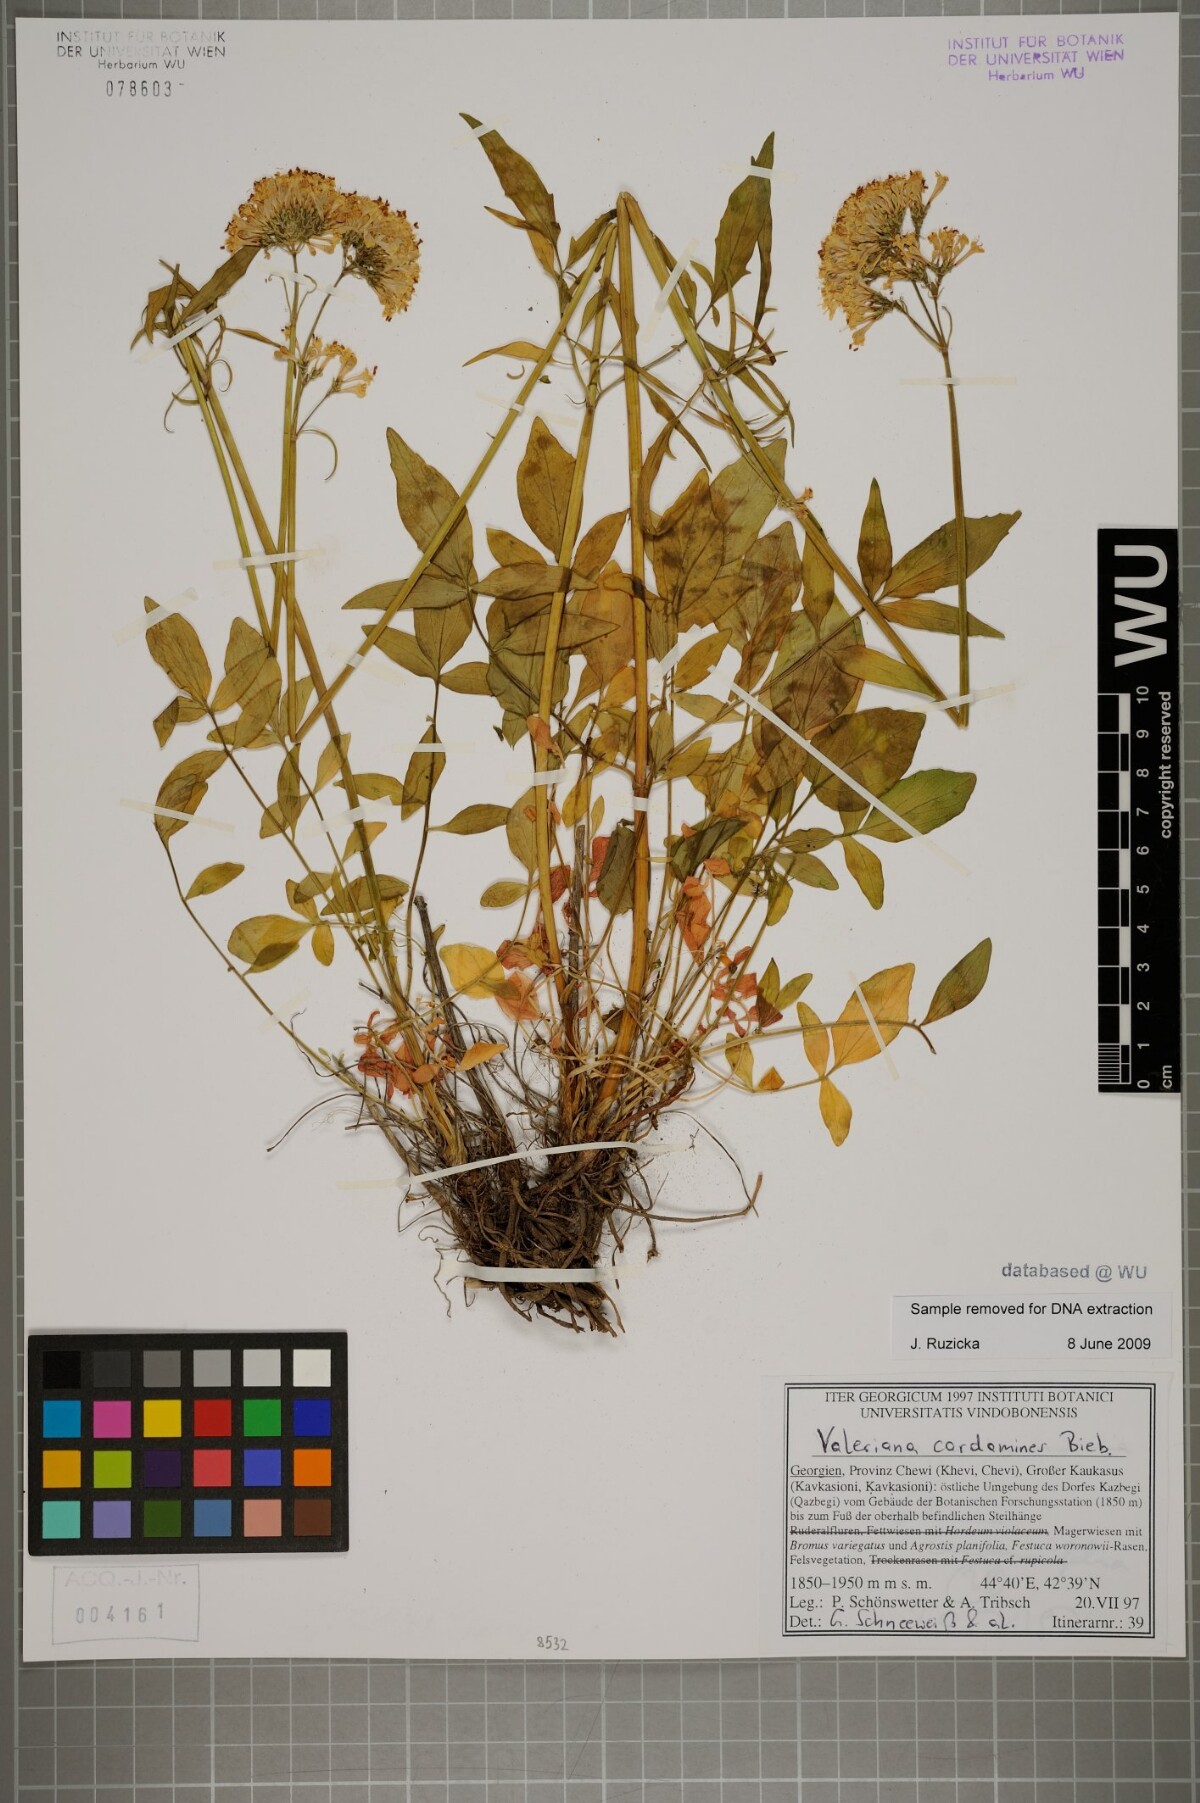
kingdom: Plantae
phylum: Tracheophyta
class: Magnoliopsida
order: Dipsacales
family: Caprifoliaceae
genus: Valeriana
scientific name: Valeriana cardamines
